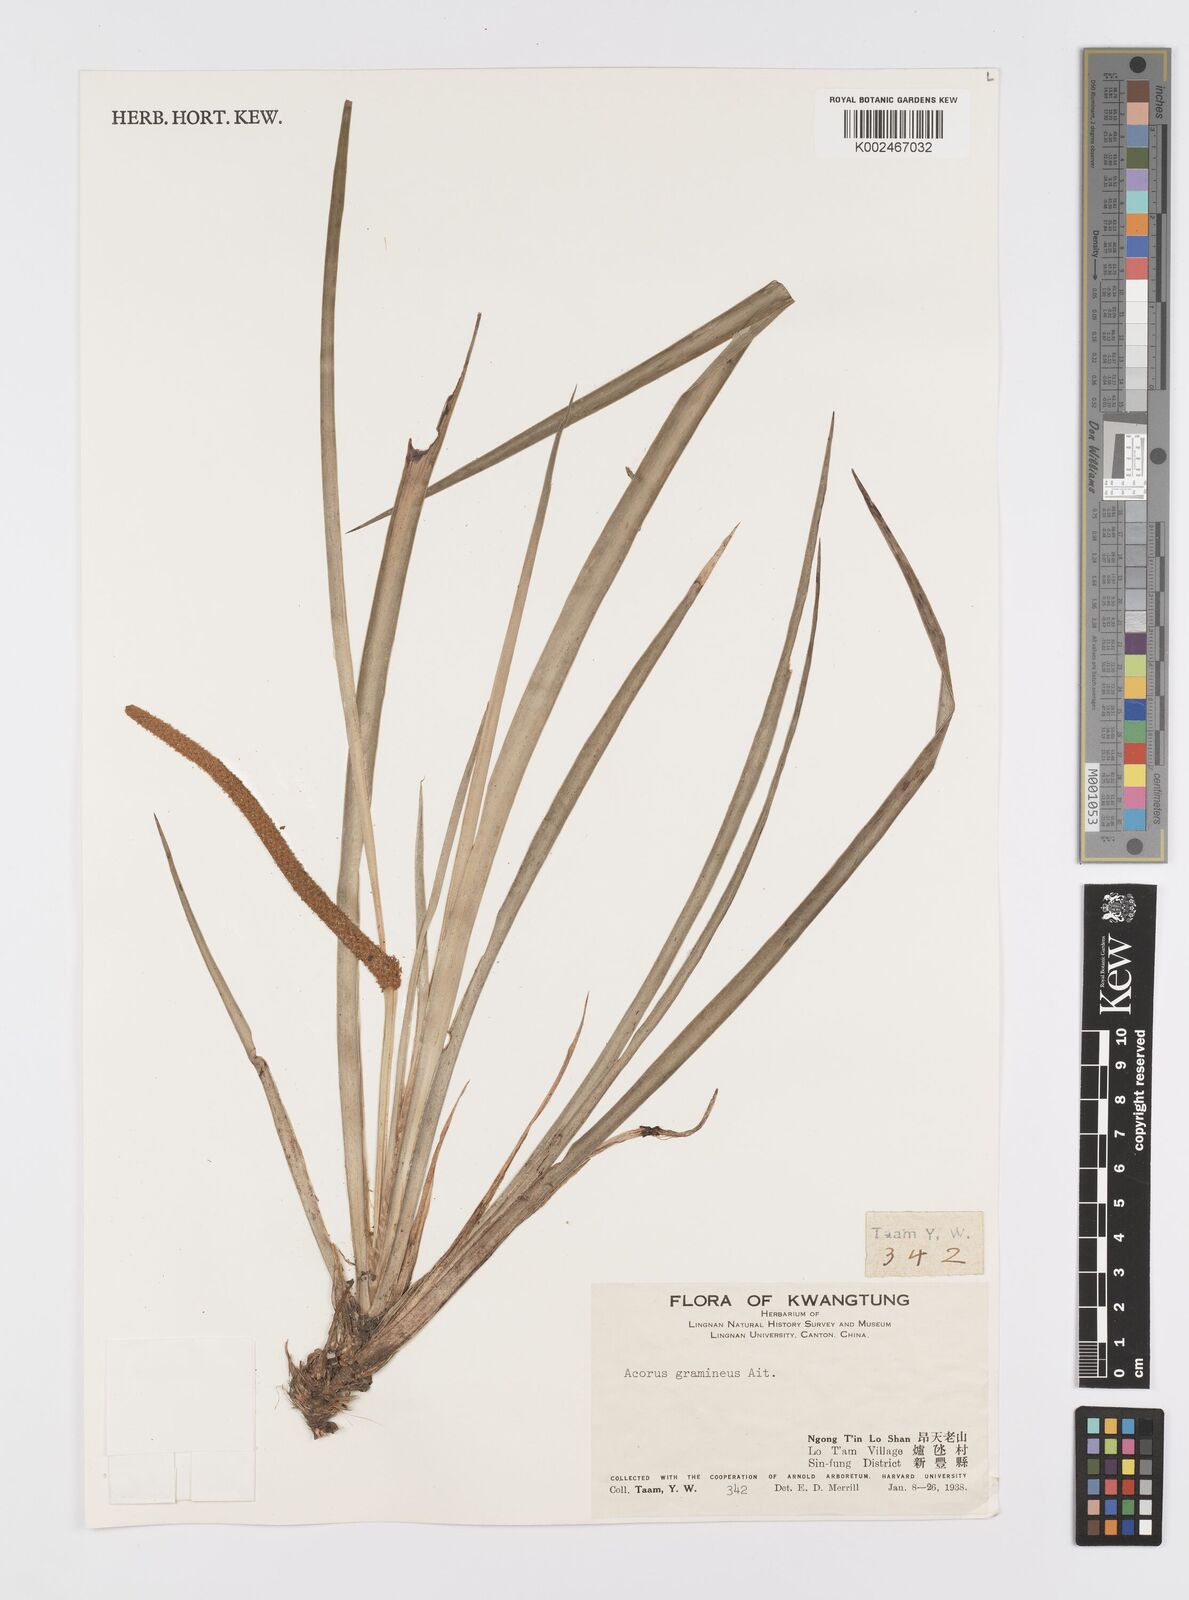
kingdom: Plantae
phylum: Tracheophyta
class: Liliopsida
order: Acorales
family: Acoraceae
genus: Acorus
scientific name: Acorus gramineus
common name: Slender sweet-flag
